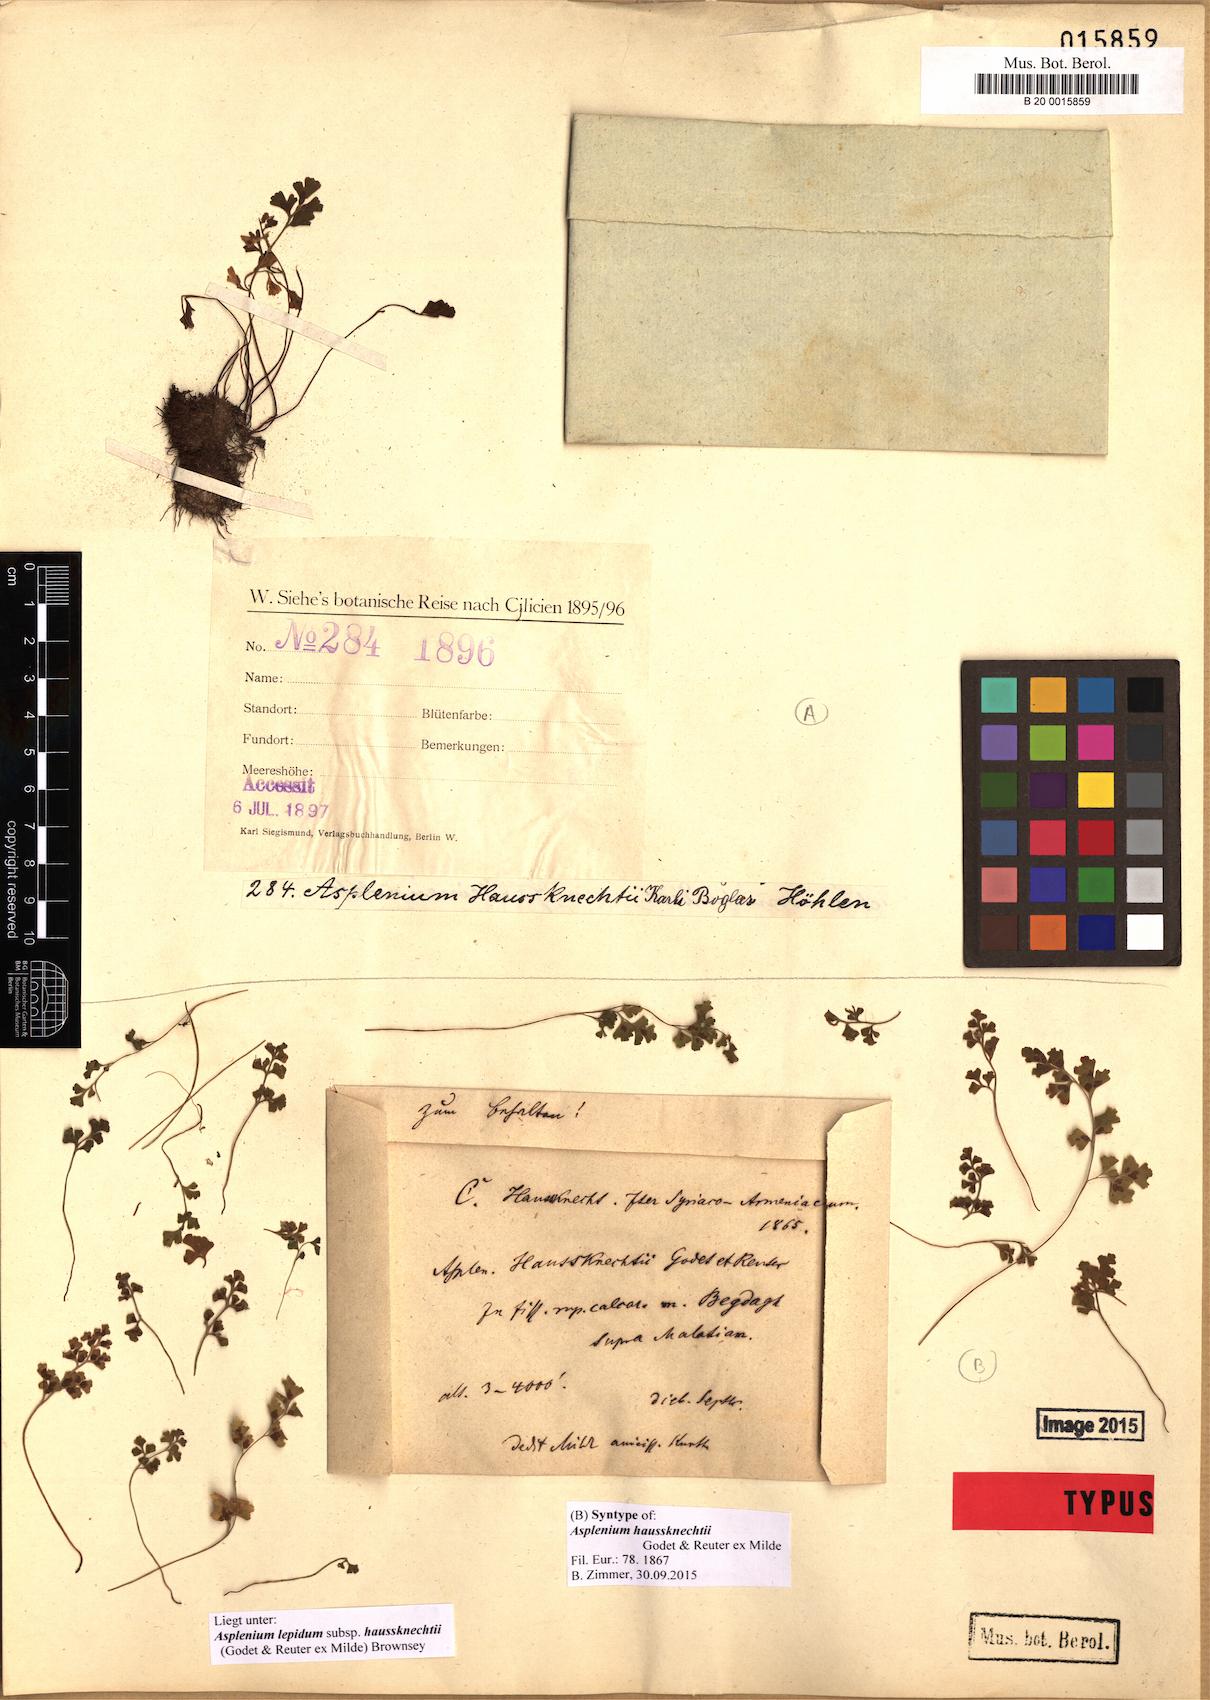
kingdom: Plantae
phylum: Tracheophyta
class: Polypodiopsida
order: Polypodiales
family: Aspleniaceae
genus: Asplenium
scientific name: Asplenium lepidum
